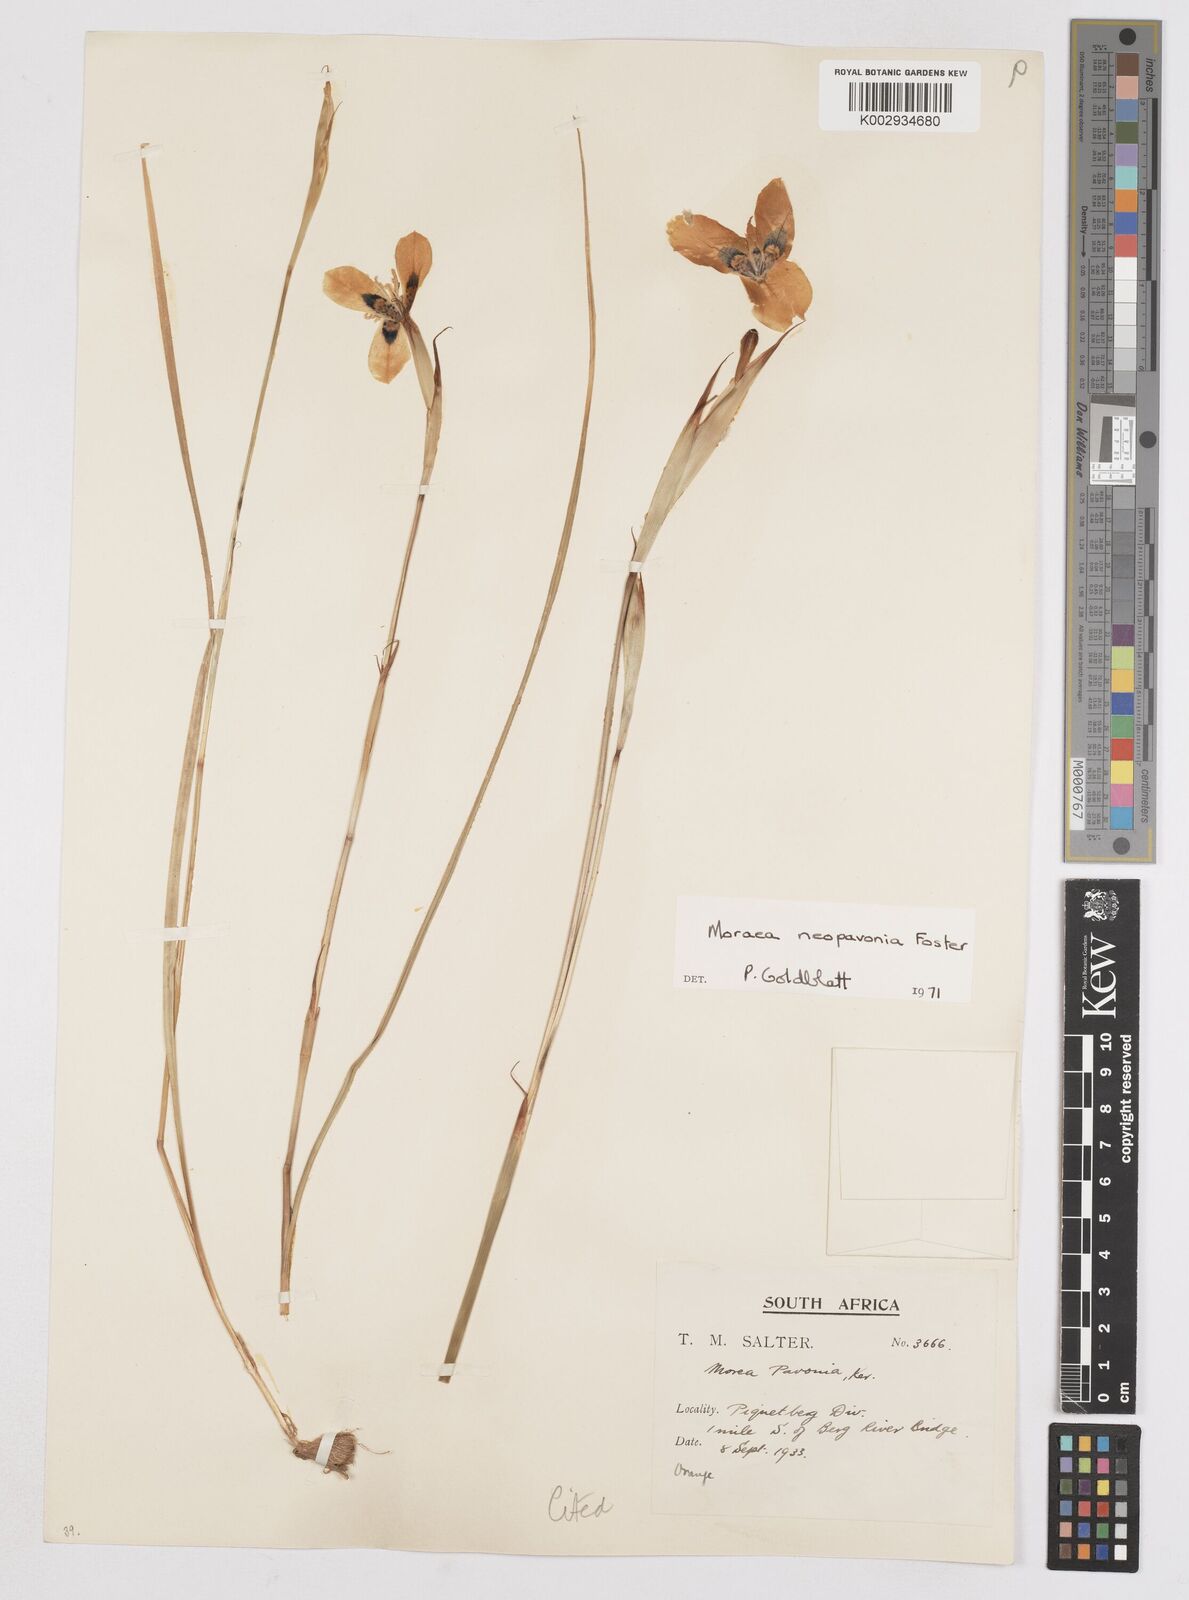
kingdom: Plantae
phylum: Tracheophyta
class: Liliopsida
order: Asparagales
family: Iridaceae
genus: Moraea
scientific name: Moraea tulbaghensis
